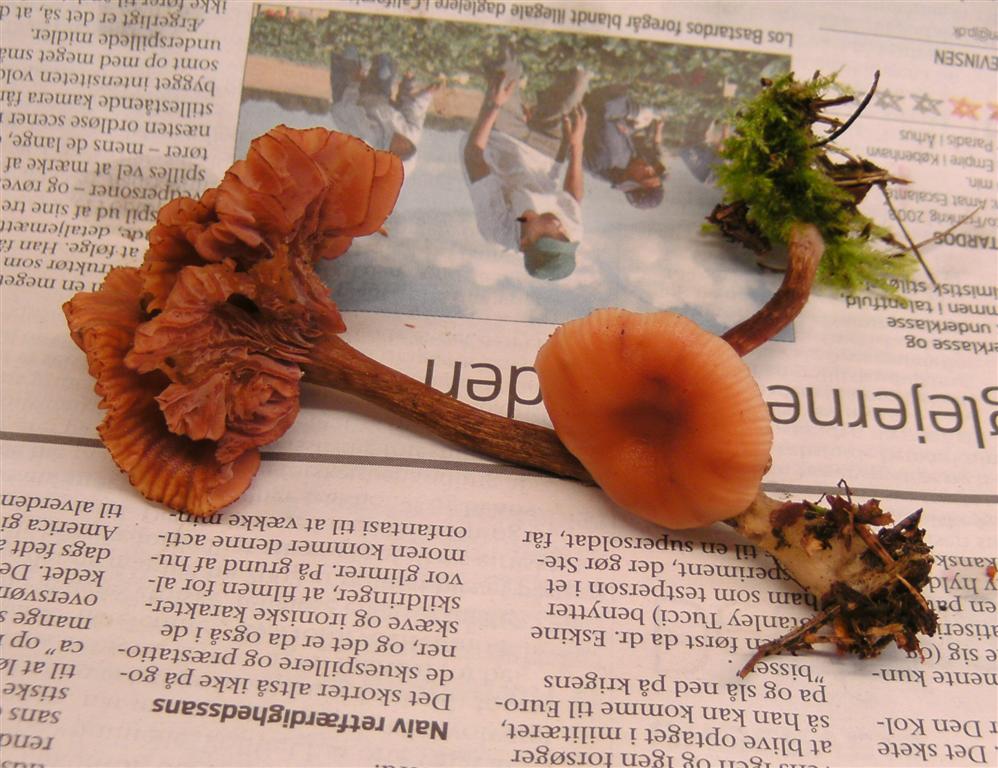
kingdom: Fungi
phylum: Basidiomycota
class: Agaricomycetes
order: Agaricales
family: Hydnangiaceae
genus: Laccaria
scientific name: Laccaria proxima
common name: stor ametysthat
